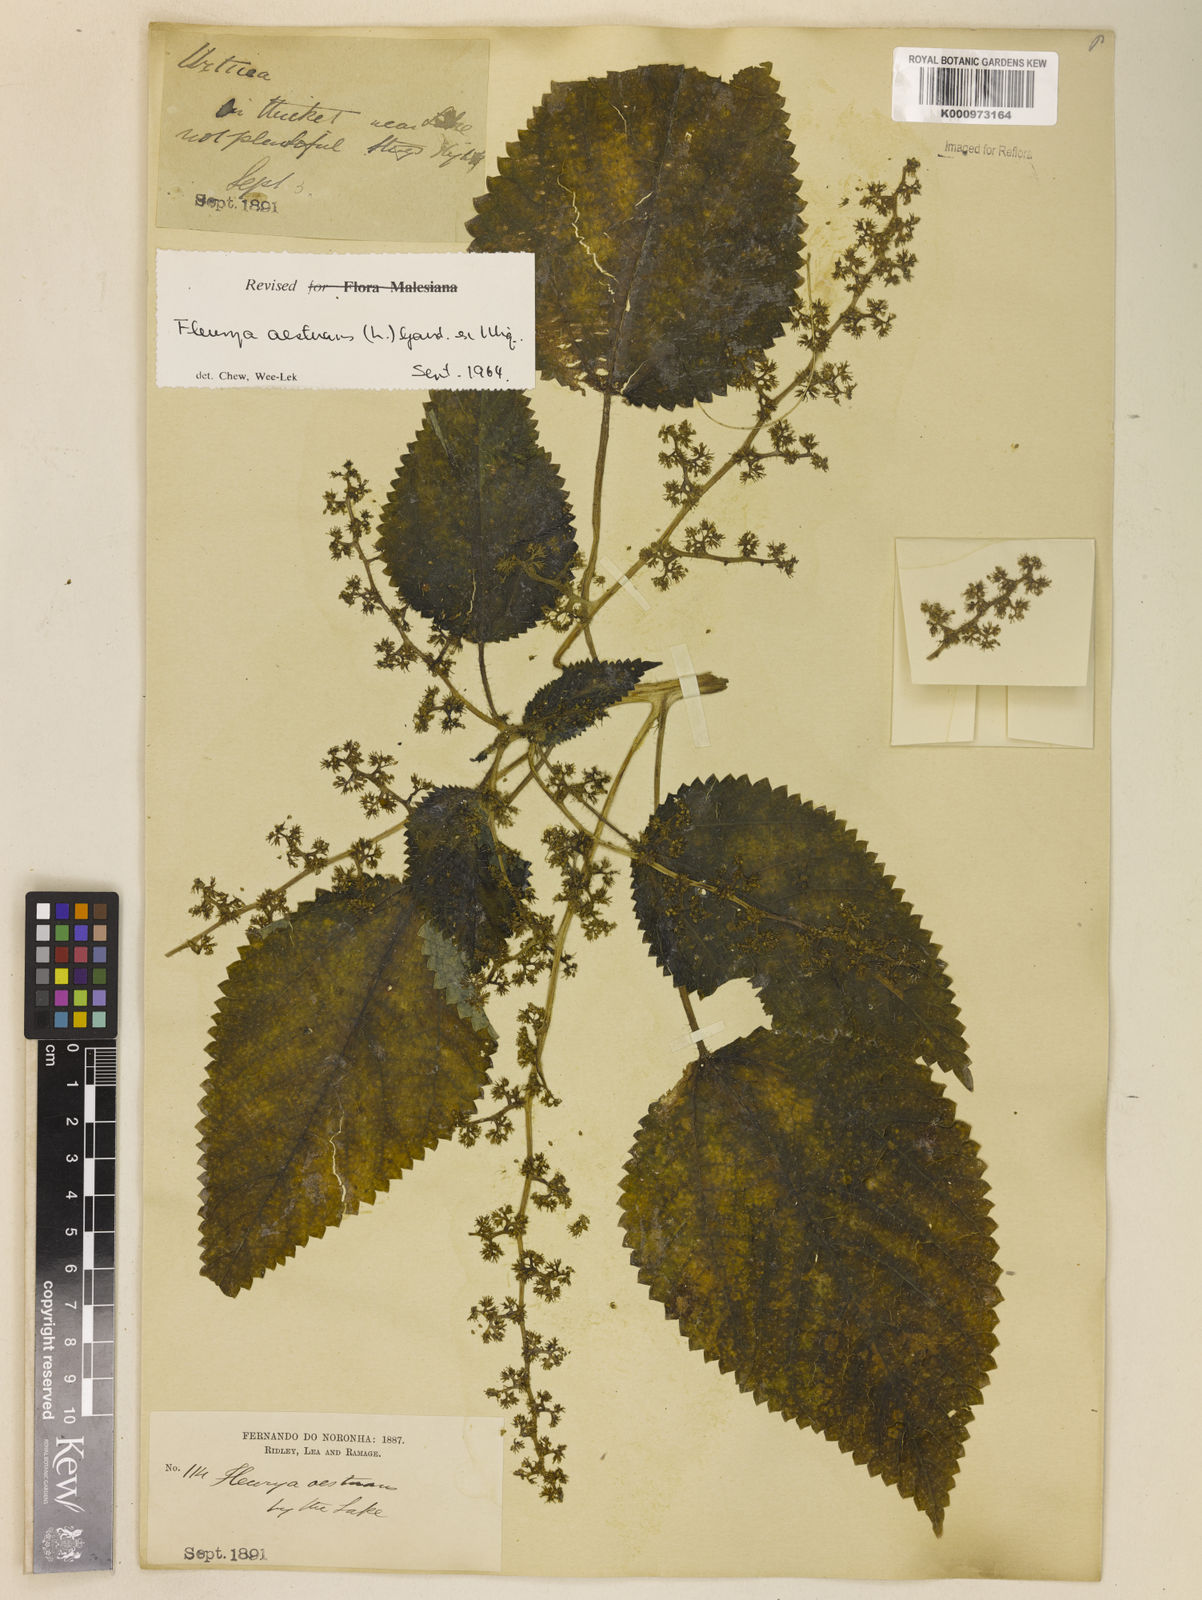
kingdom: Plantae
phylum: Tracheophyta
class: Magnoliopsida
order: Rosales
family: Urticaceae
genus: Laportea
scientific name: Laportea aestuans
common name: West indian woodnettle
